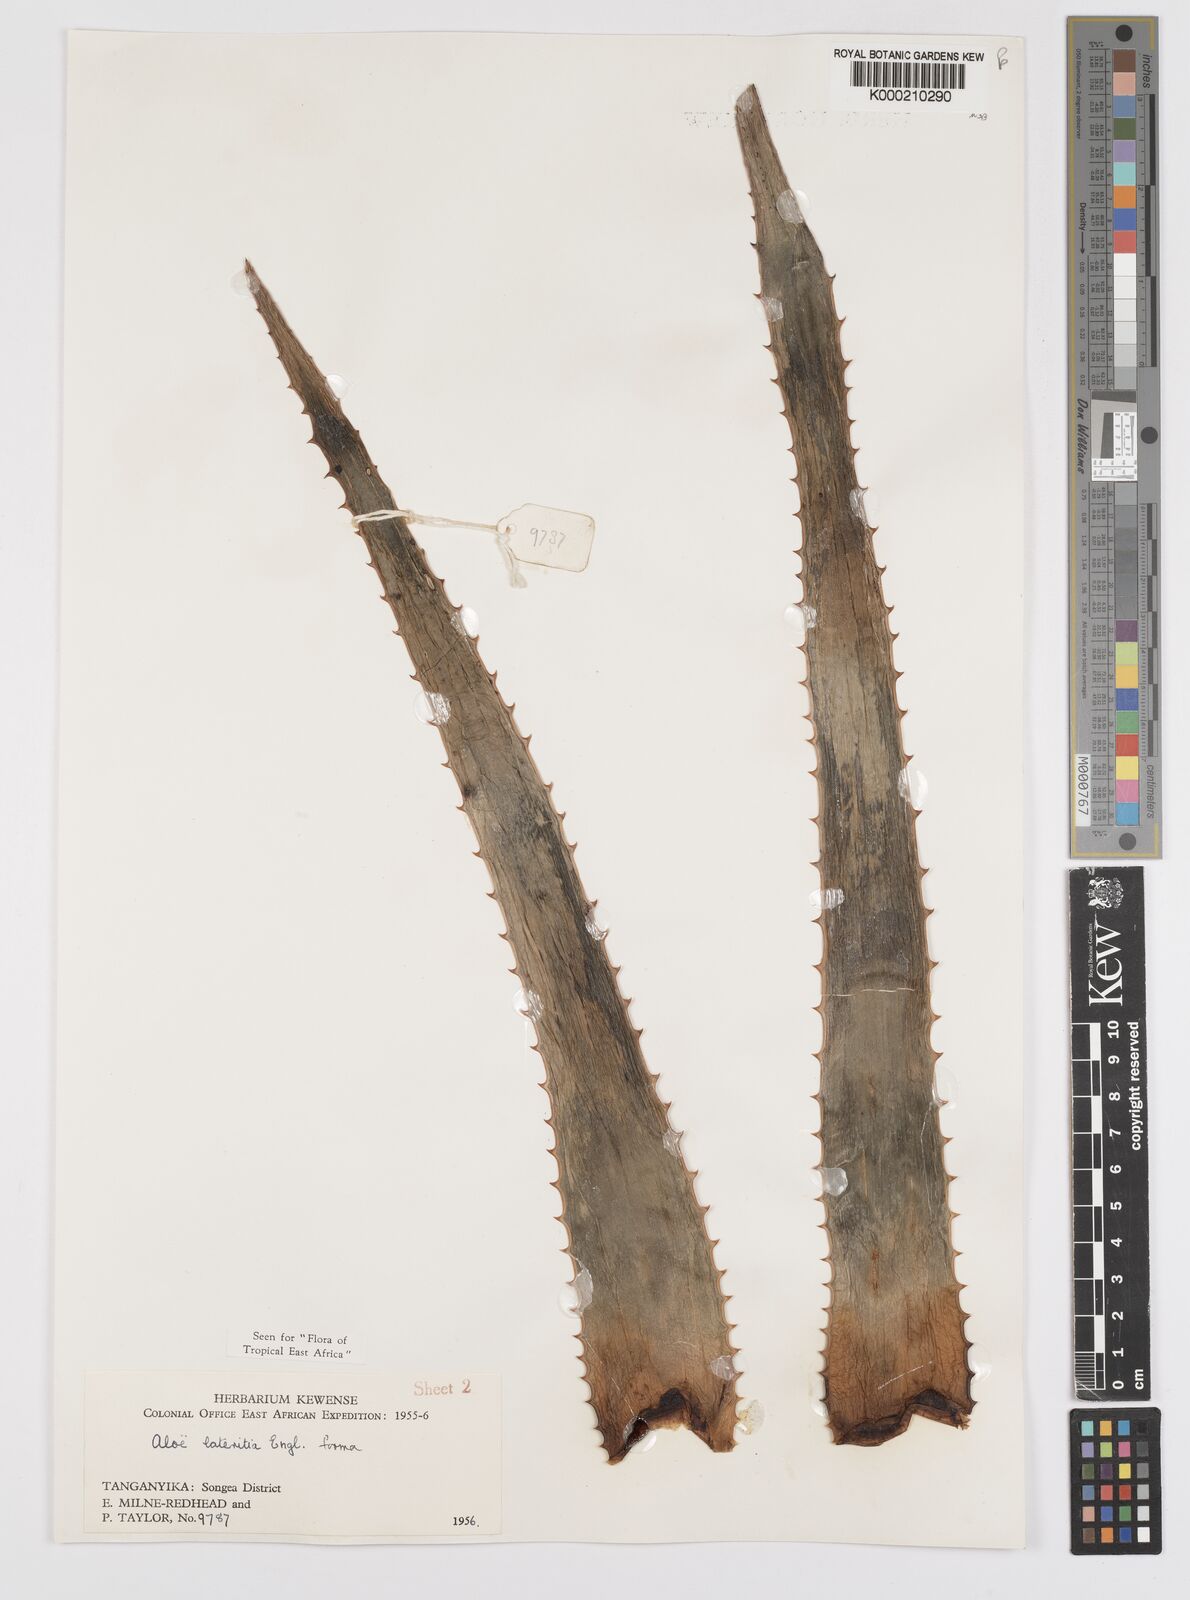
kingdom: Plantae
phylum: Tracheophyta
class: Liliopsida
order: Asparagales
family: Asphodelaceae
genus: Aloe
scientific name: Aloe lateritia
